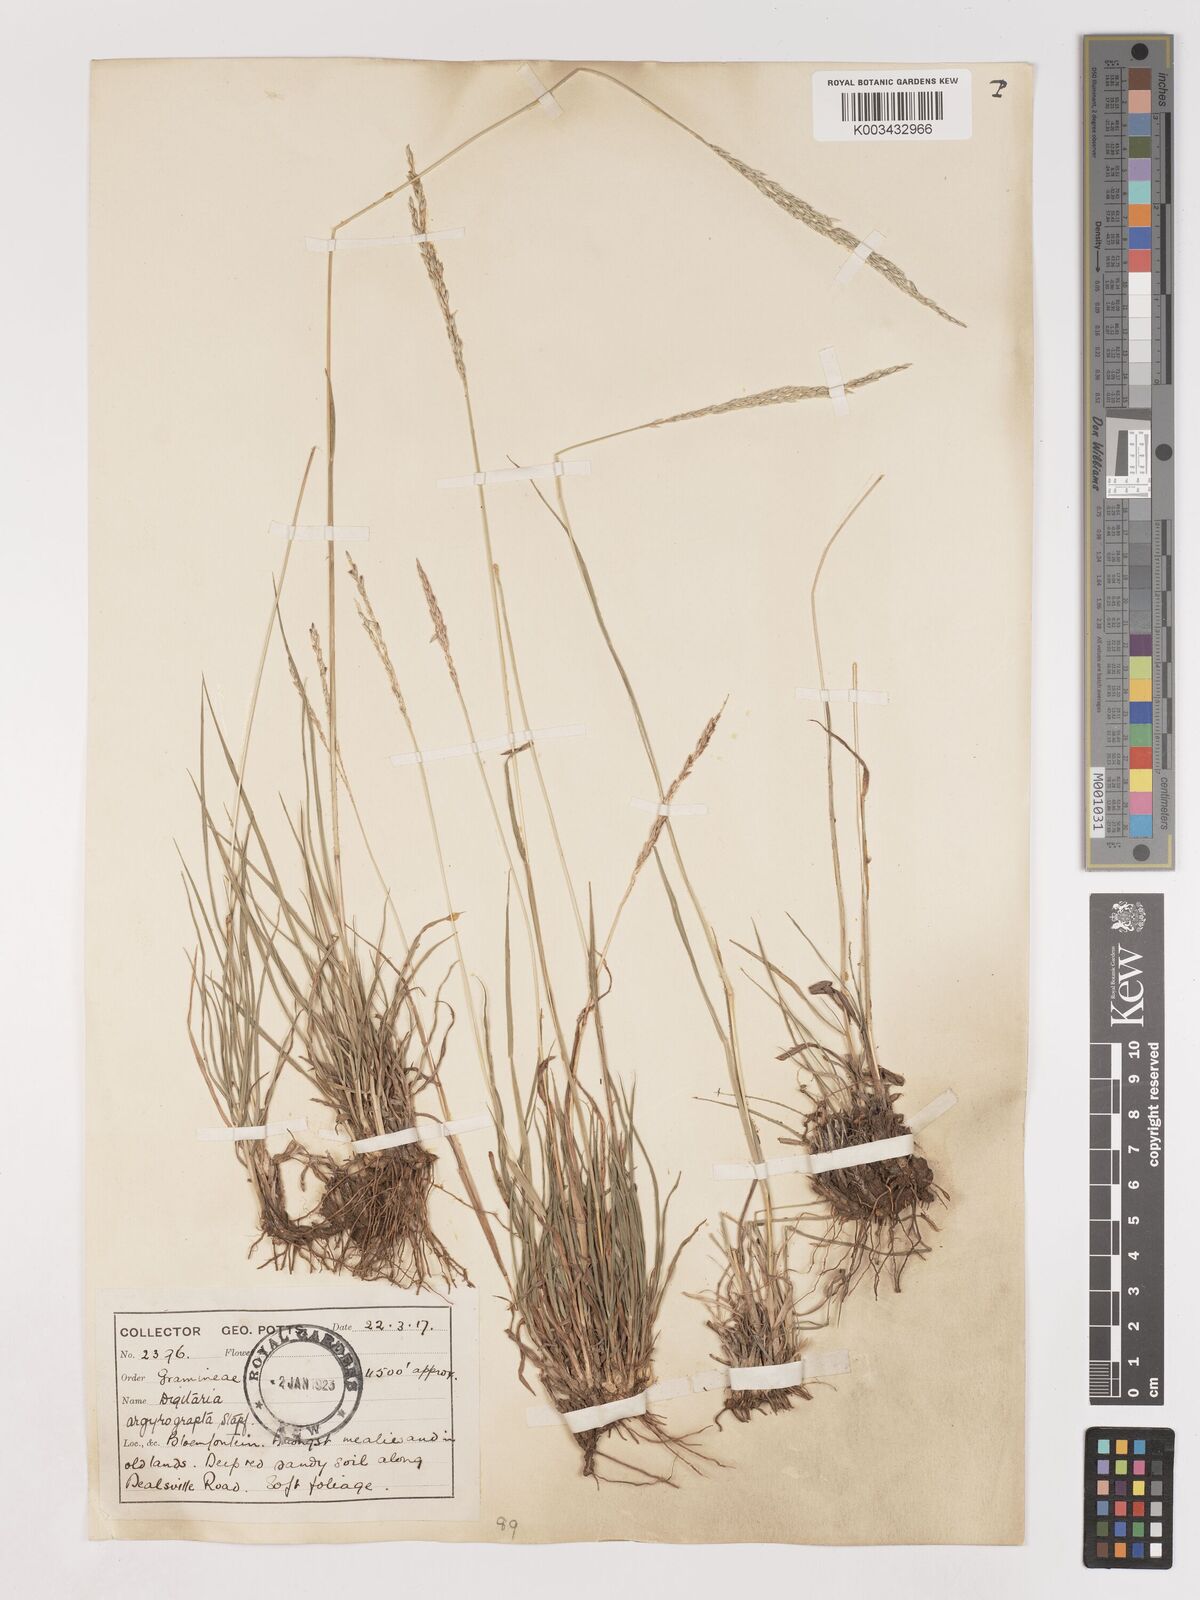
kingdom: Plantae
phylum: Tracheophyta
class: Liliopsida
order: Poales
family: Poaceae
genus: Digitaria
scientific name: Digitaria argyrograpta
